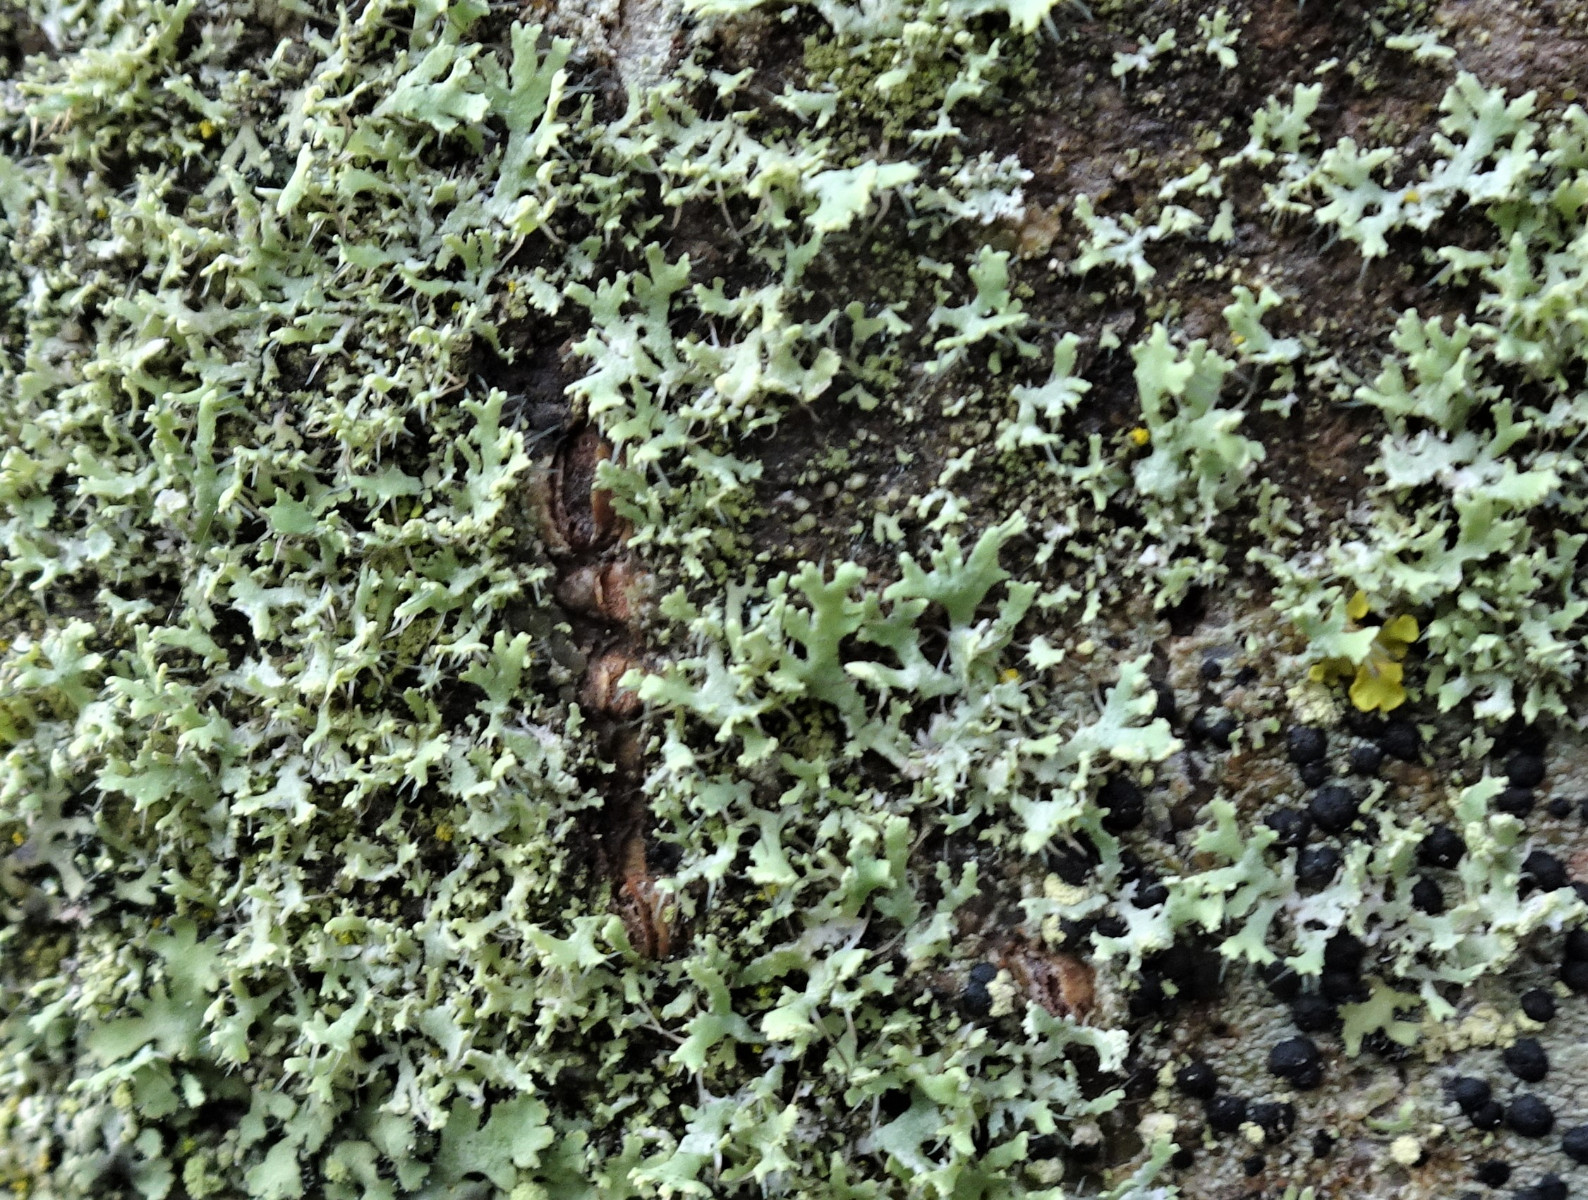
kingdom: Fungi
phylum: Ascomycota
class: Lecanoromycetes
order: Caliciales
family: Physciaceae
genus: Physcia
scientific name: Physcia tenella
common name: spæd rosetlav
